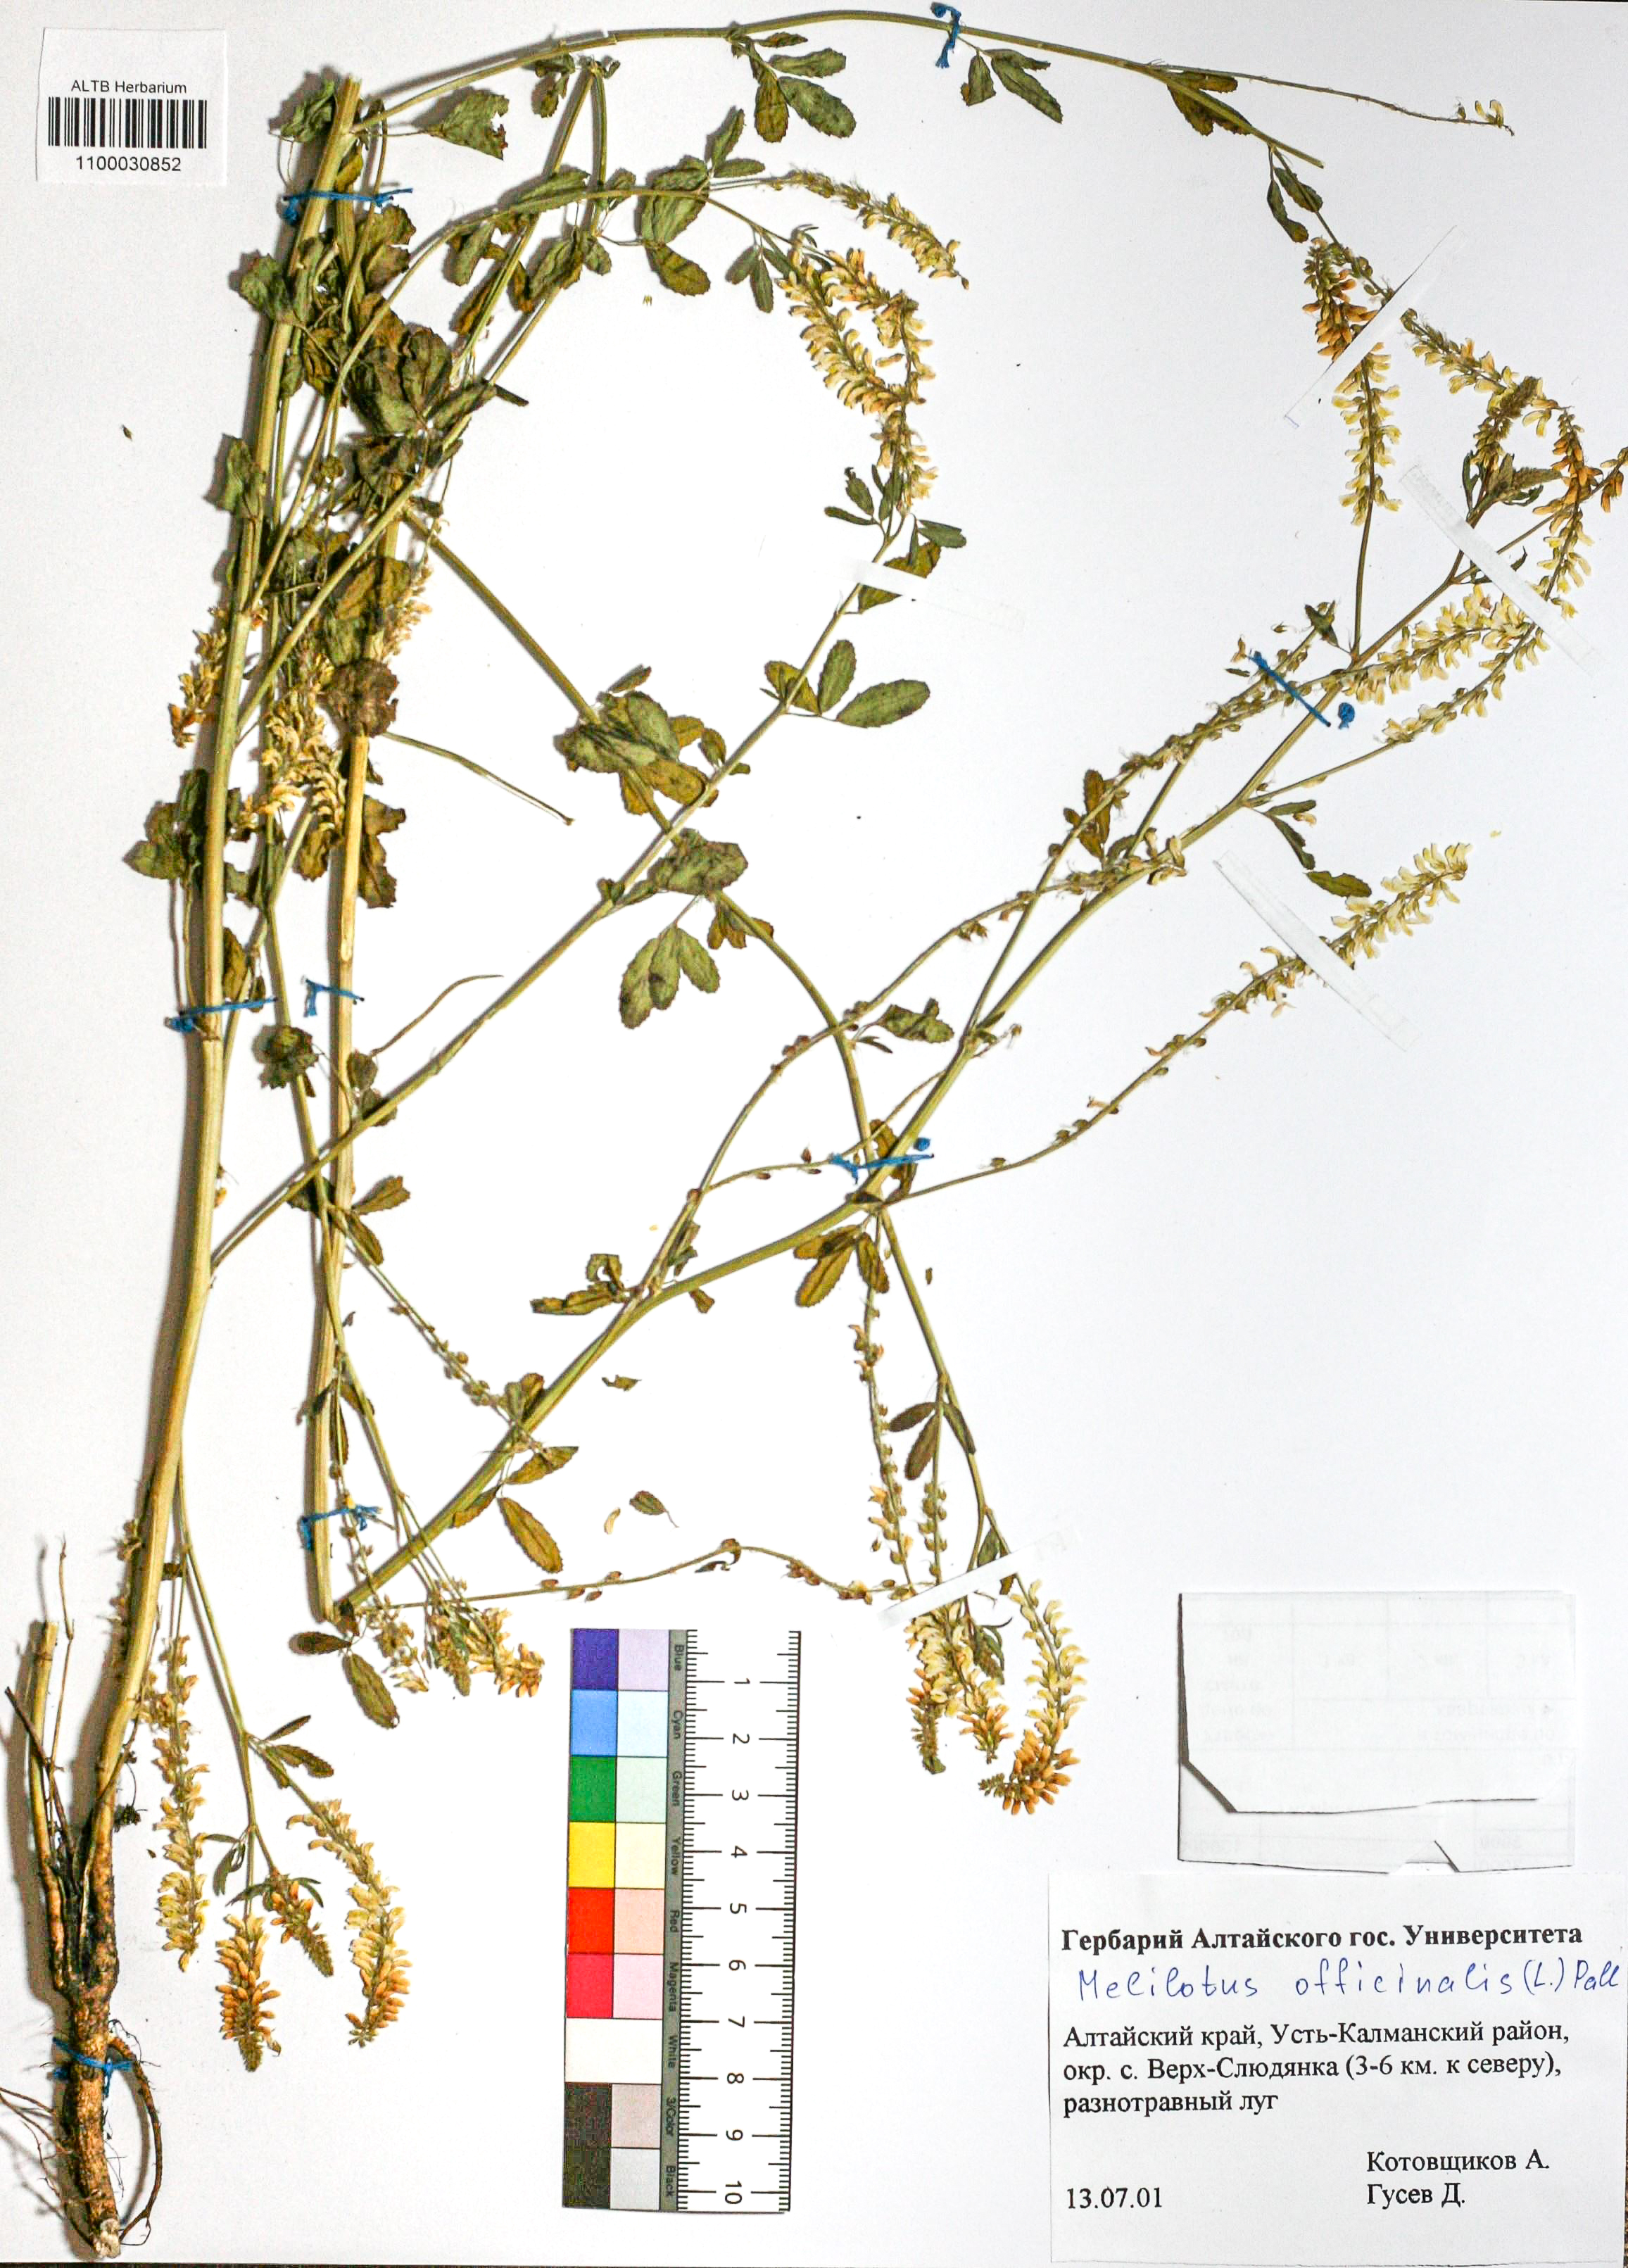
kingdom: Plantae
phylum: Tracheophyta
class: Magnoliopsida
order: Fabales
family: Fabaceae
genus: Melilotus
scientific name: Melilotus officinalis
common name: Sweetclover
